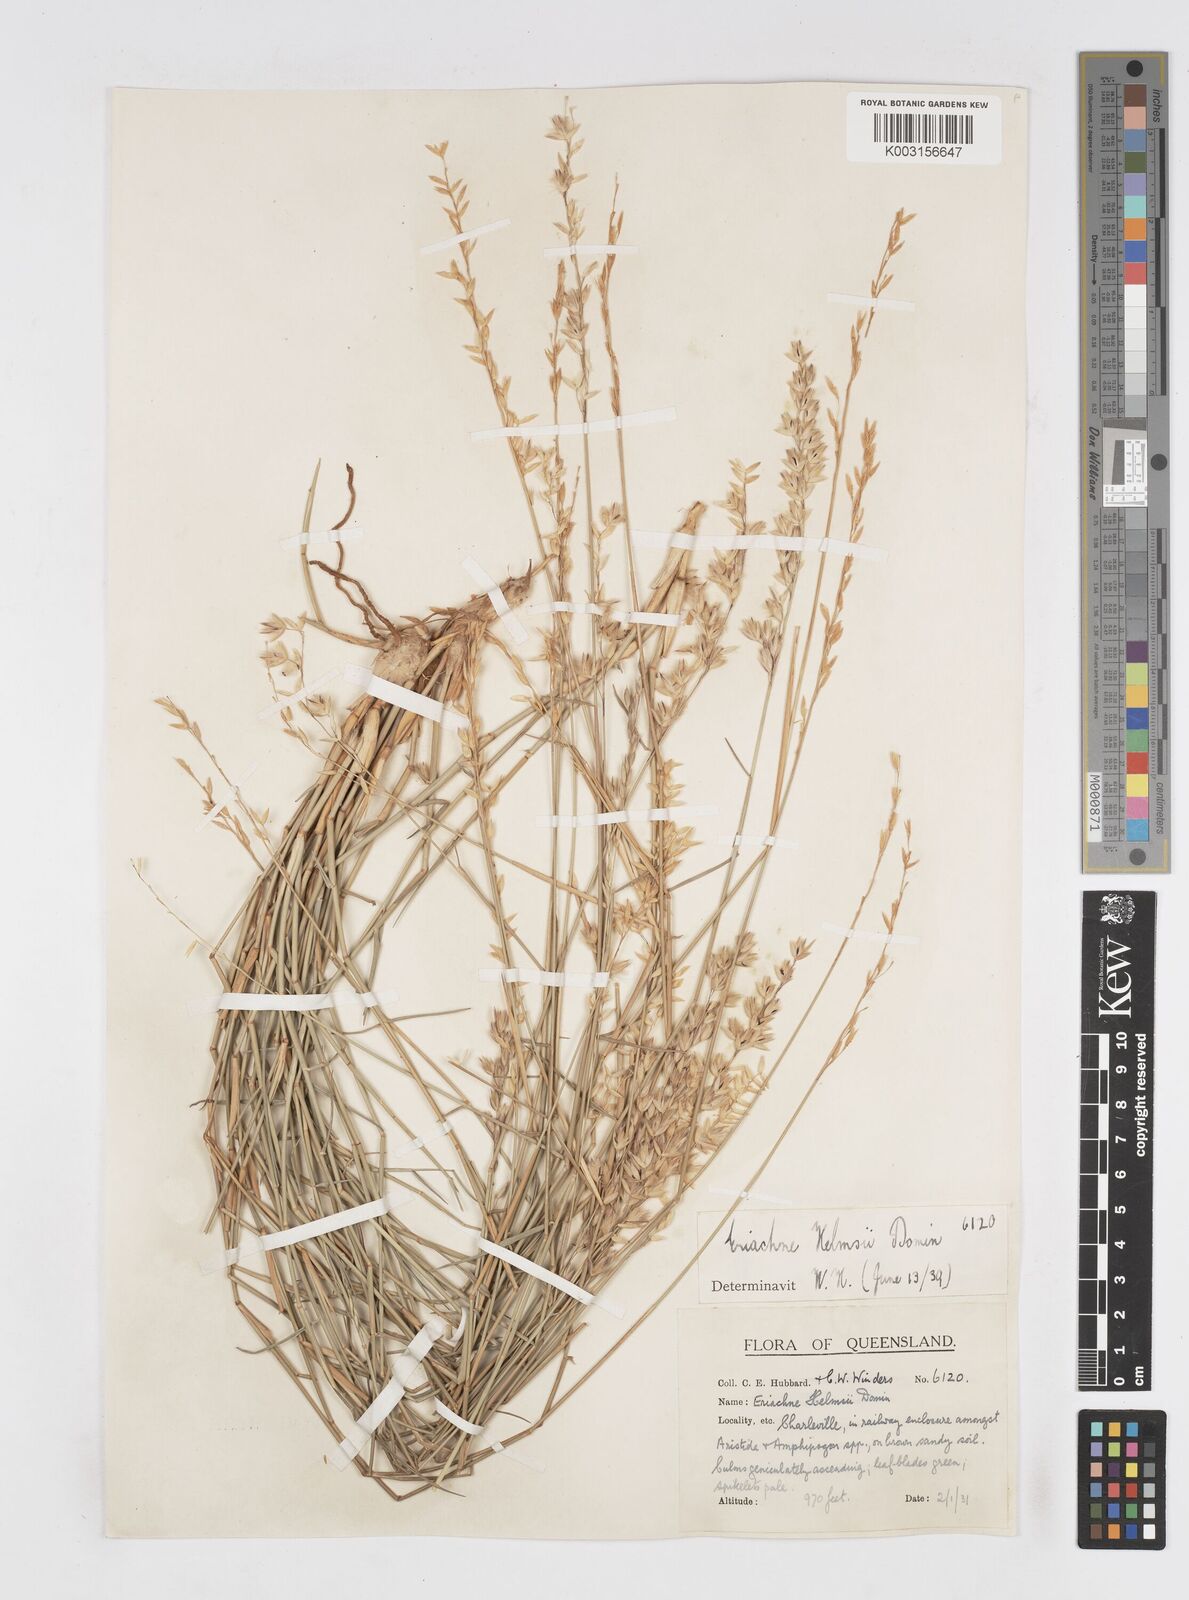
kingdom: Plantae
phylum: Tracheophyta
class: Liliopsida
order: Poales
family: Poaceae
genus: Eriachne
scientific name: Eriachne helmsii
